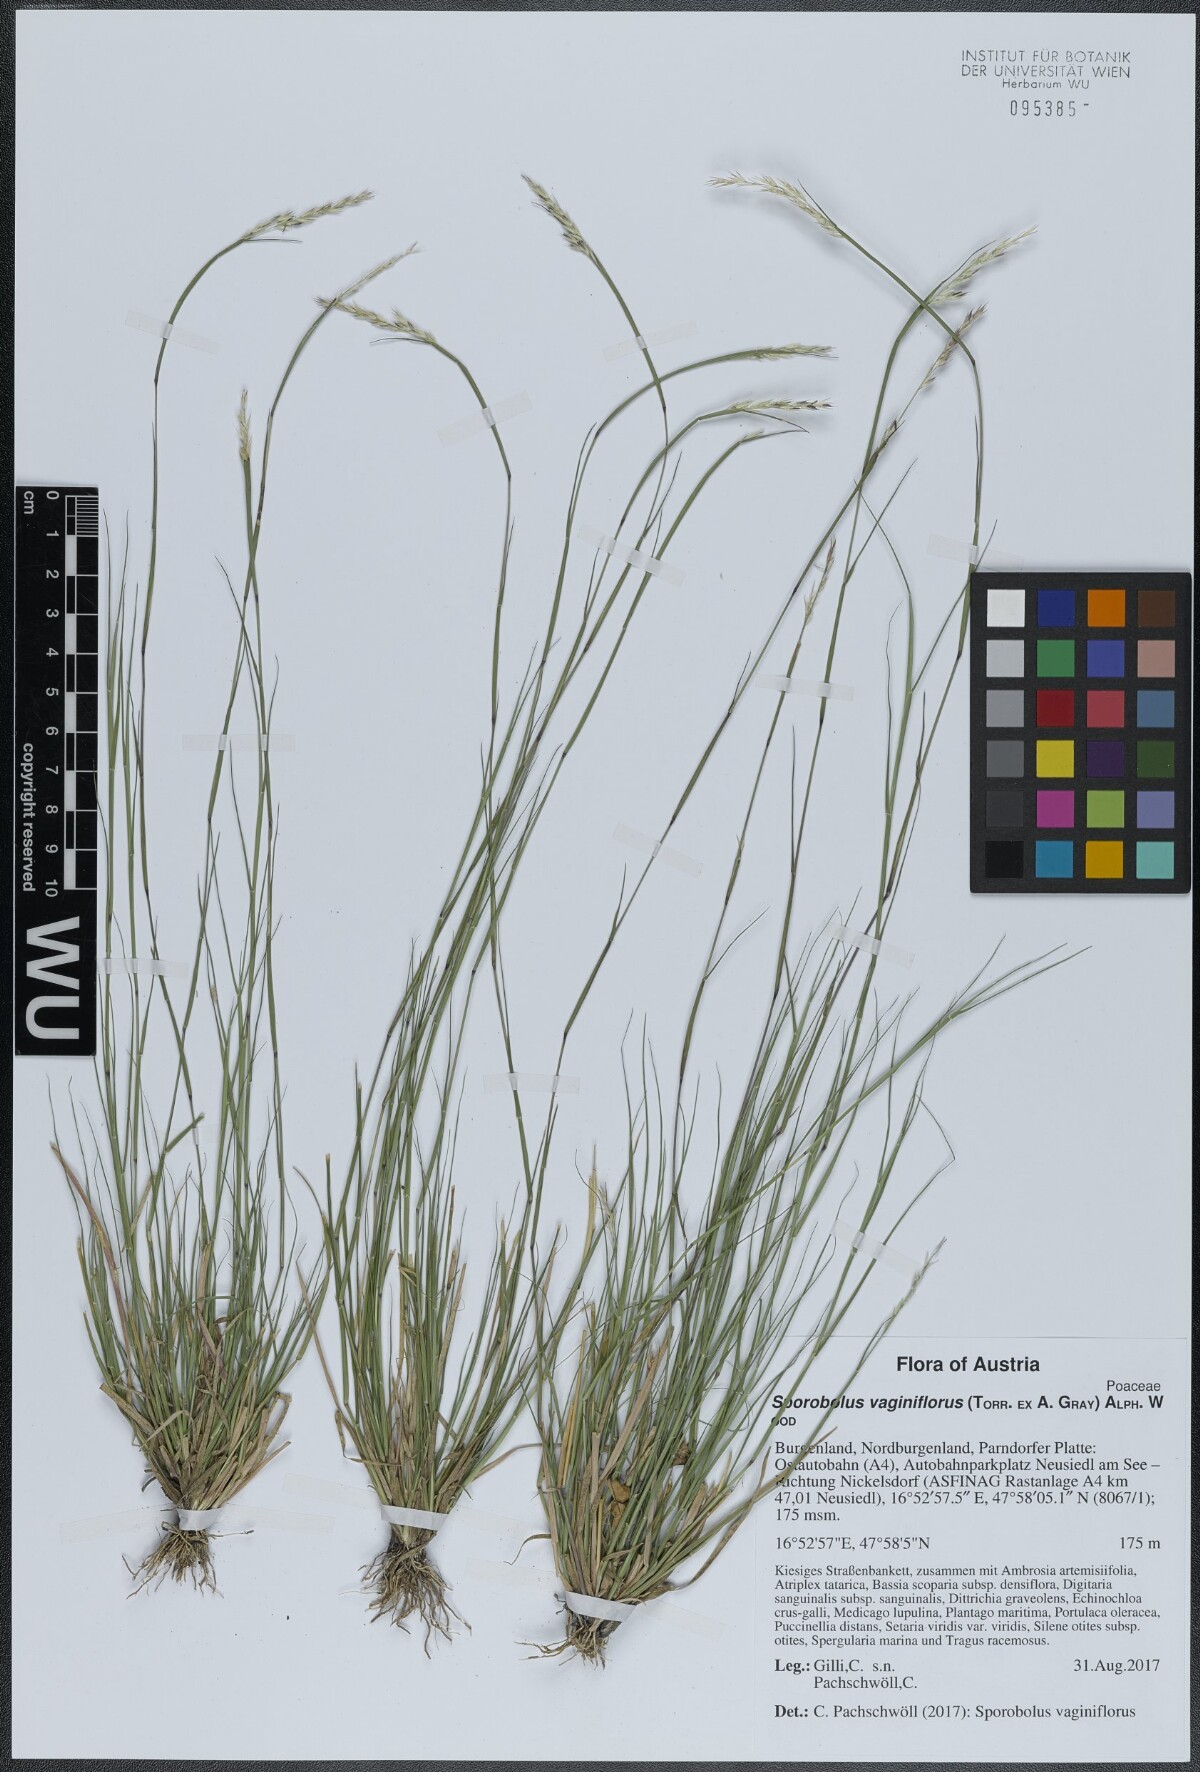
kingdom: Plantae
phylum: Tracheophyta
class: Liliopsida
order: Poales
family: Poaceae
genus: Sporobolus
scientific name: Sporobolus vaginiflorus
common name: Poverty dropseed
